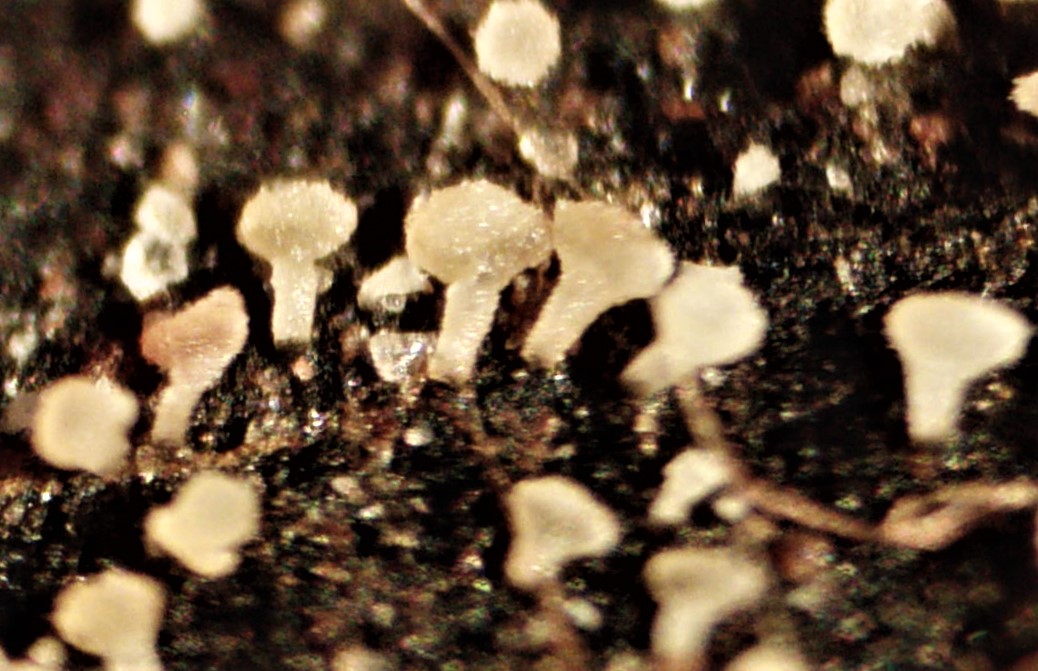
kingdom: Fungi
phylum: Ascomycota
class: Leotiomycetes
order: Helotiales
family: Pezizellaceae
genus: Psilachnum
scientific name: Psilachnum chrysostigmum
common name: gulnende hårskive
